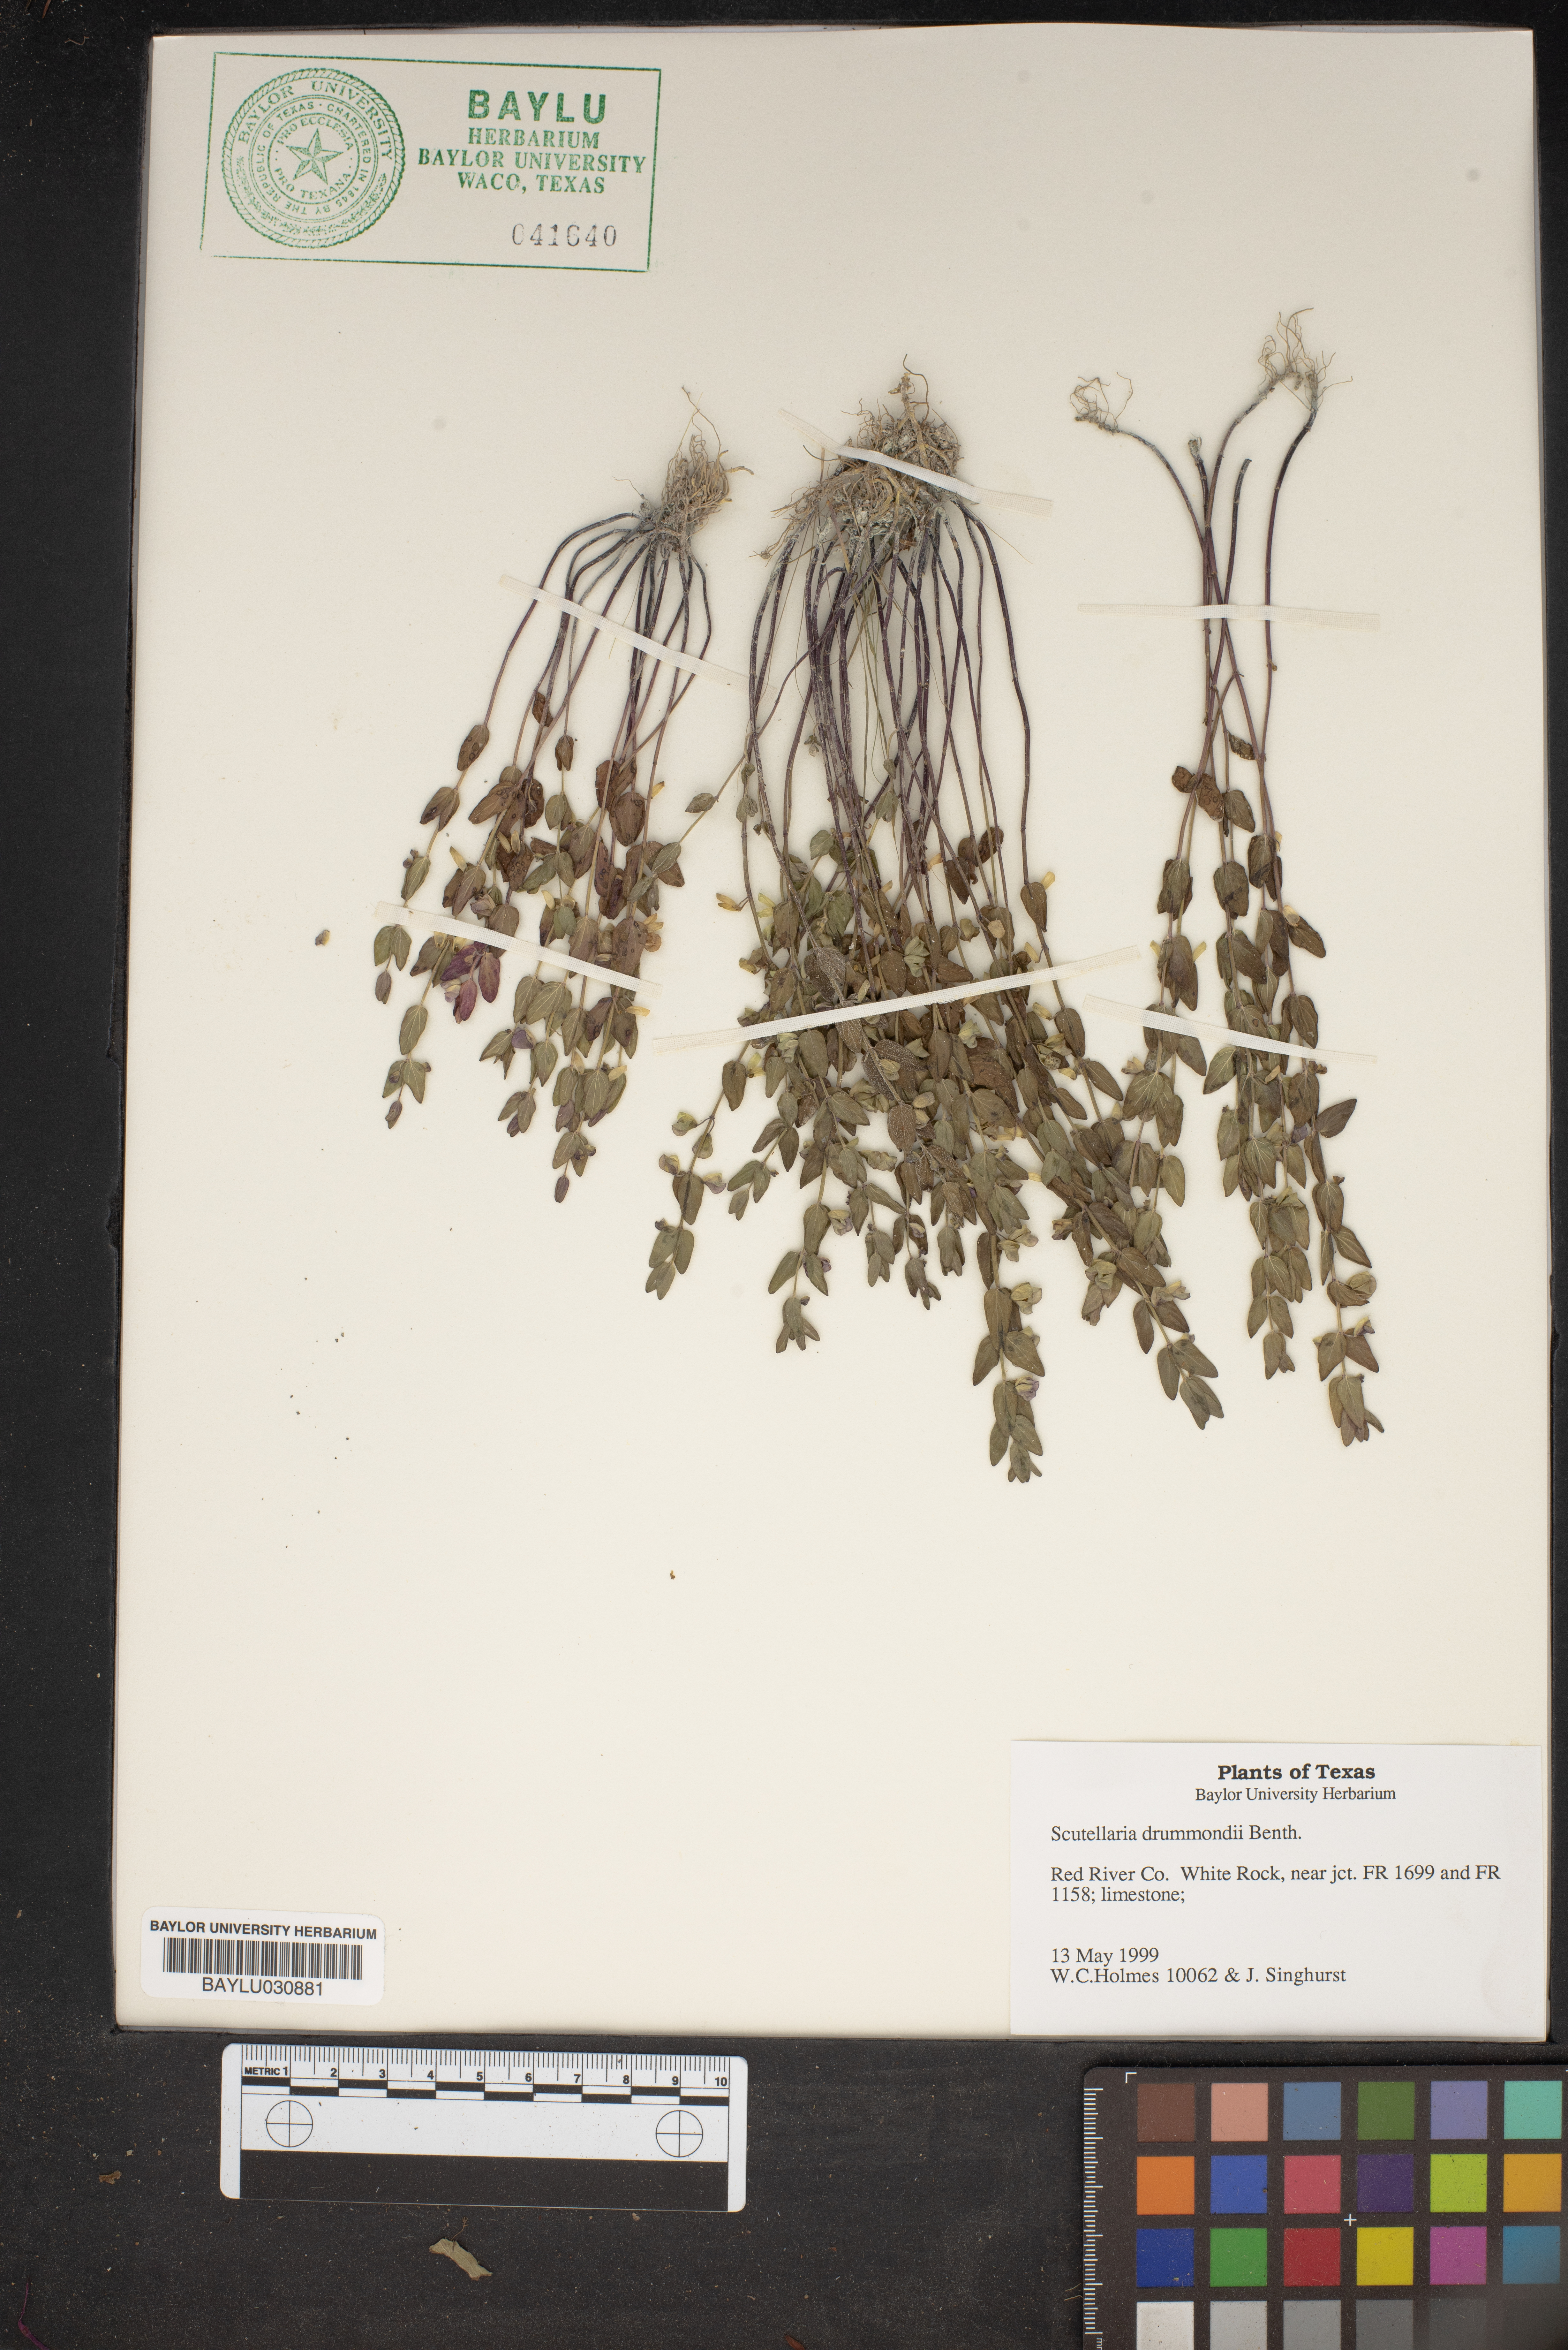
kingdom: Plantae
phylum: Tracheophyta
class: Magnoliopsida
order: Lamiales
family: Lamiaceae
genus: Scutellaria
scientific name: Scutellaria drummondii
